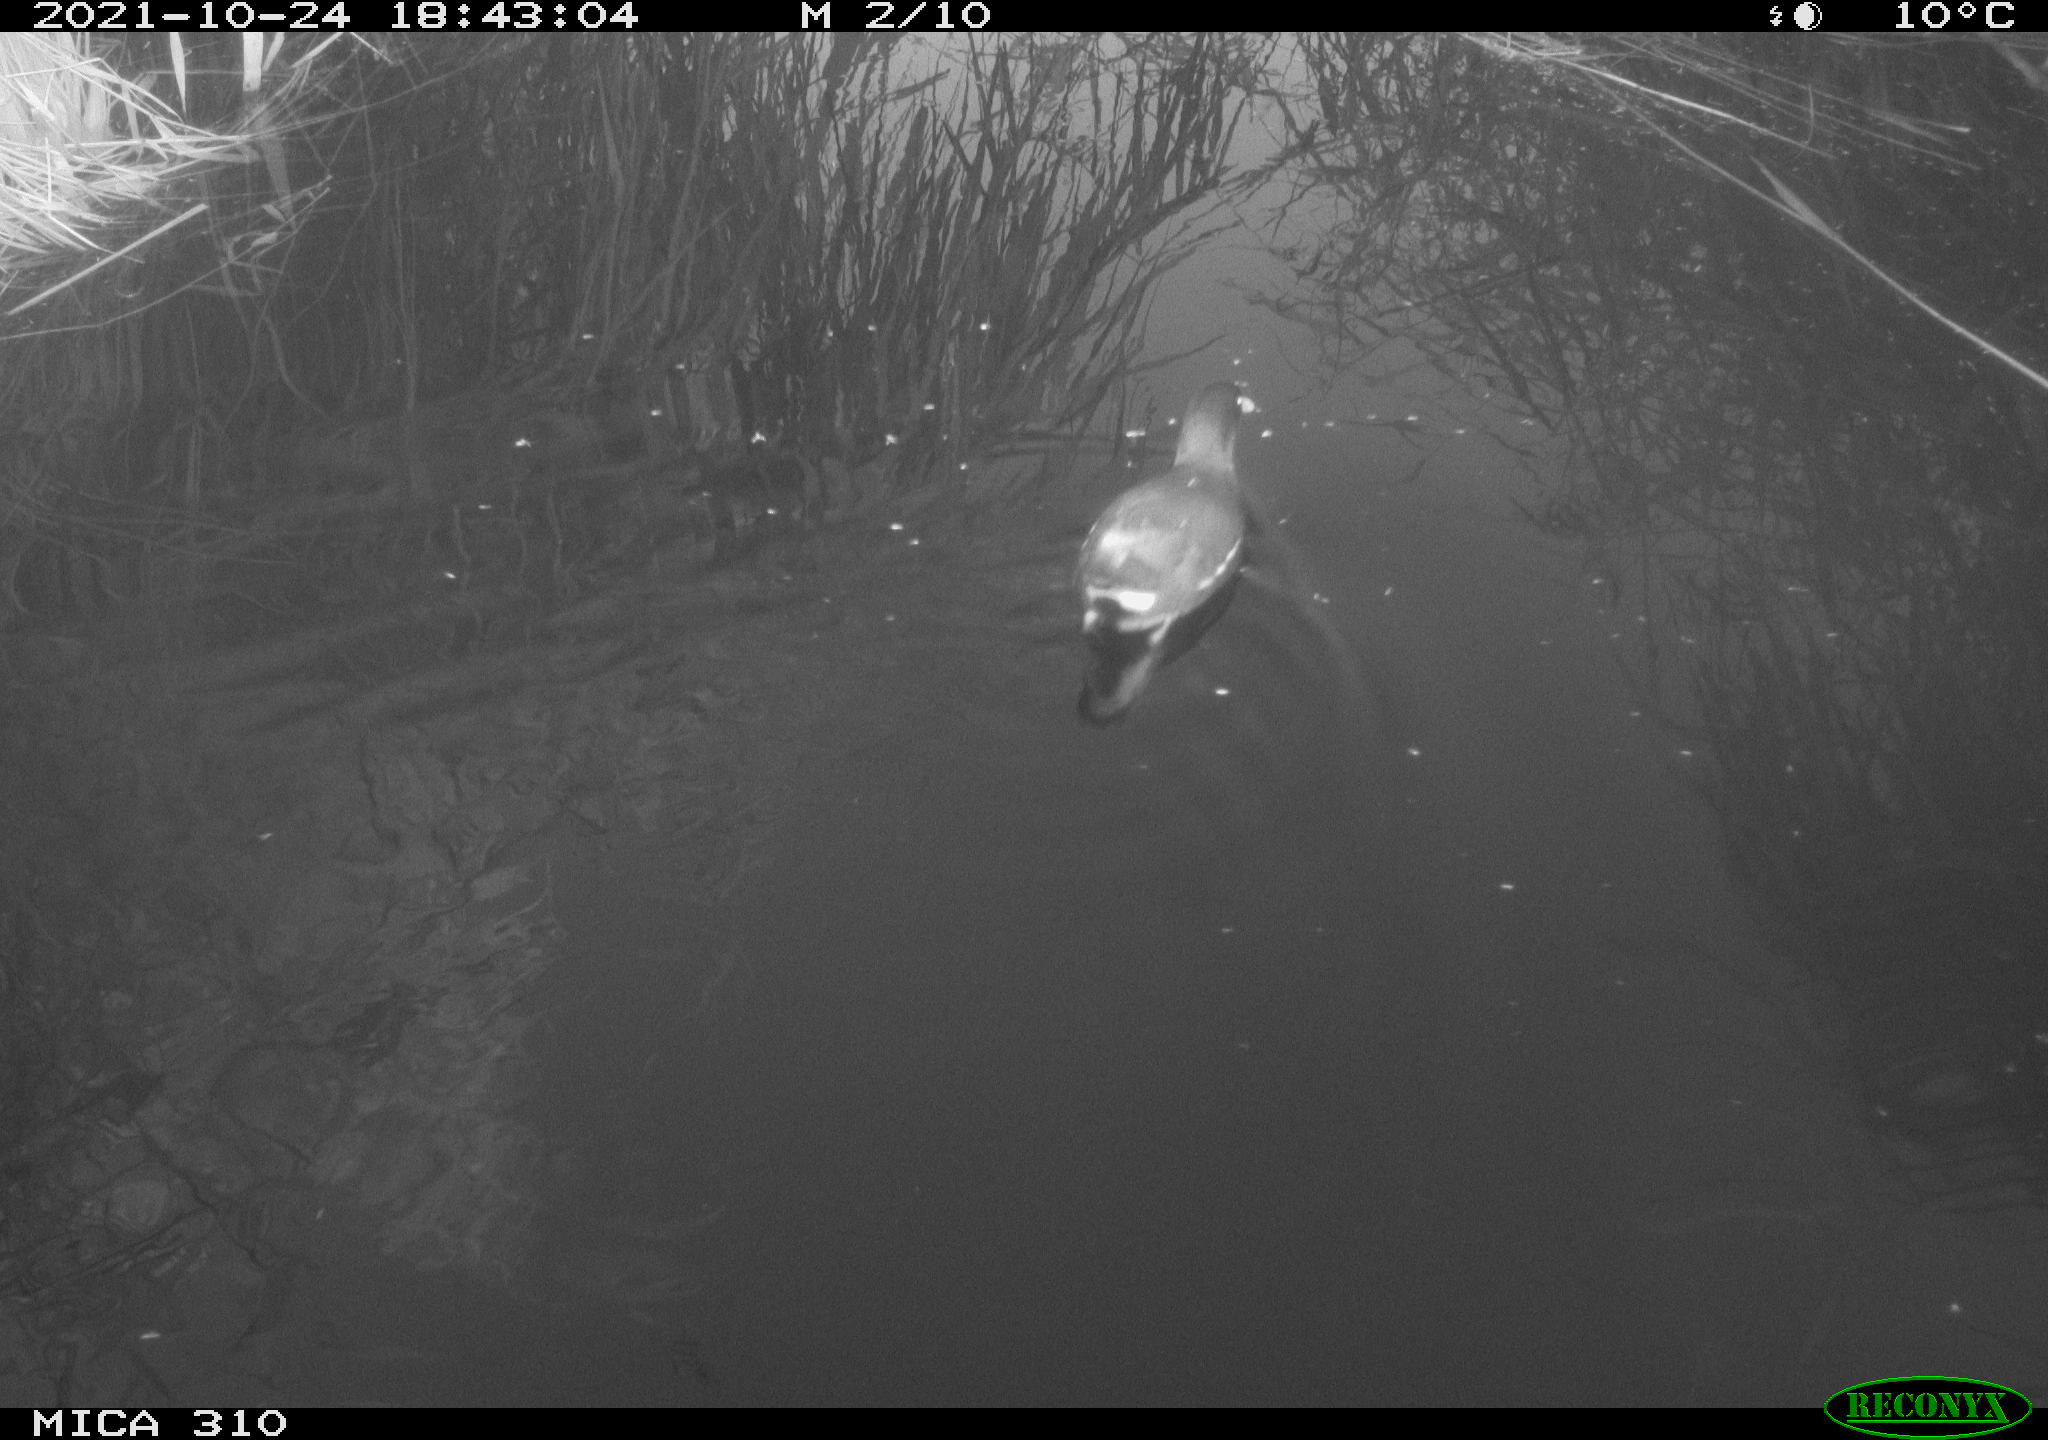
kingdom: Animalia
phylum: Chordata
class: Aves
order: Gruiformes
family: Rallidae
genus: Gallinula
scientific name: Gallinula chloropus
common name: Common moorhen
